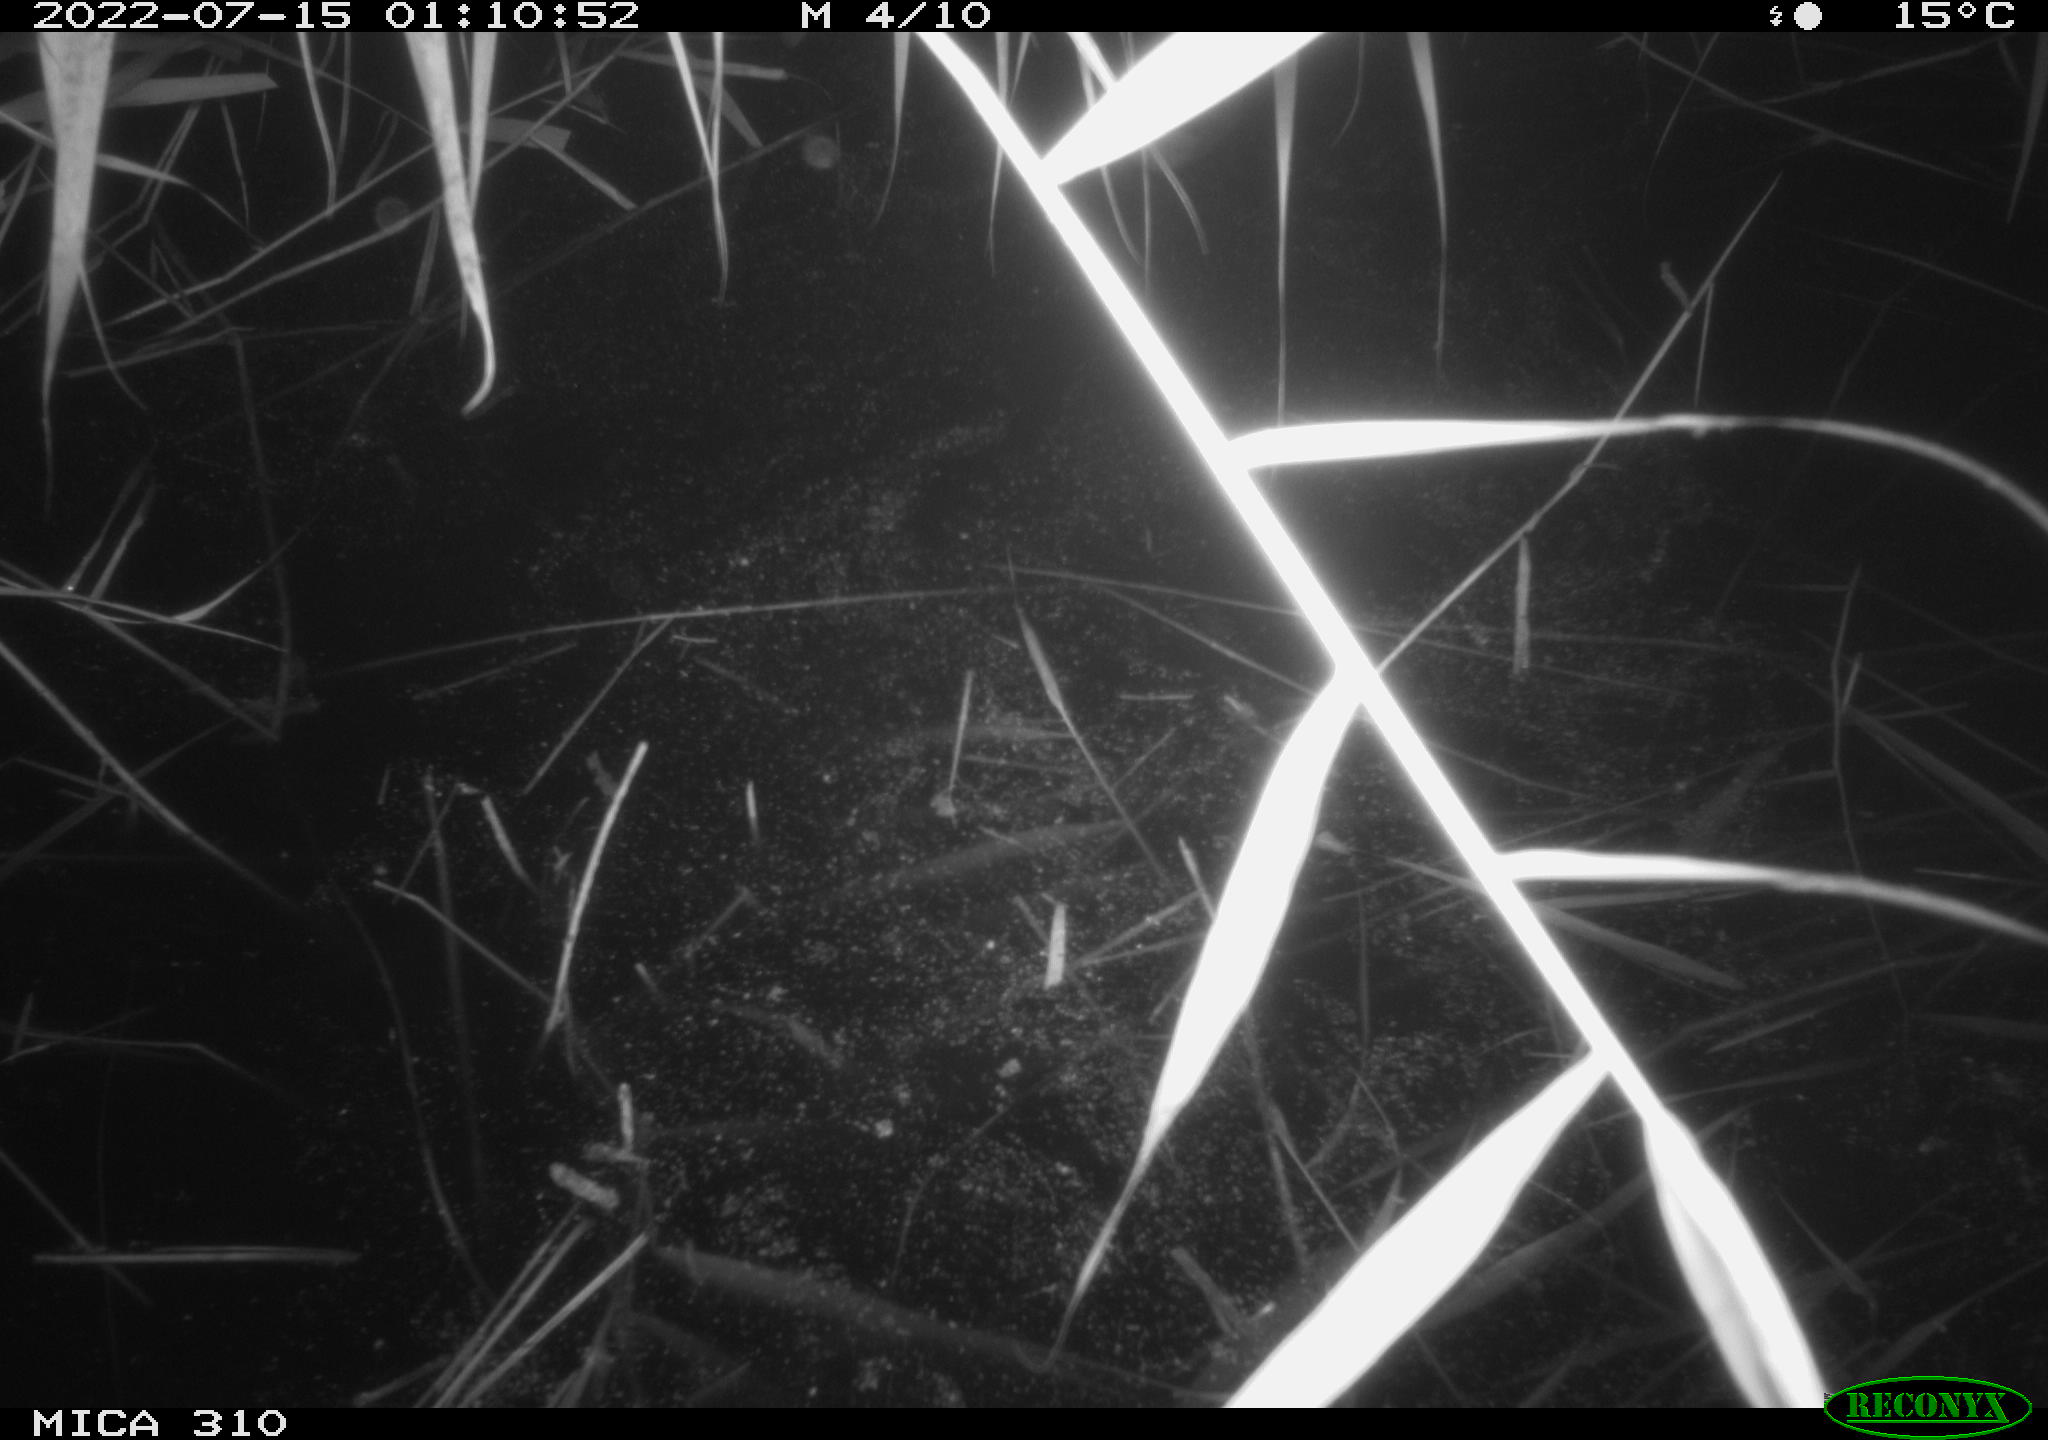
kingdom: Animalia
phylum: Chordata
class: Aves
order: Anseriformes
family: Anatidae
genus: Anas
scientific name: Anas platyrhynchos
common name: Mallard
